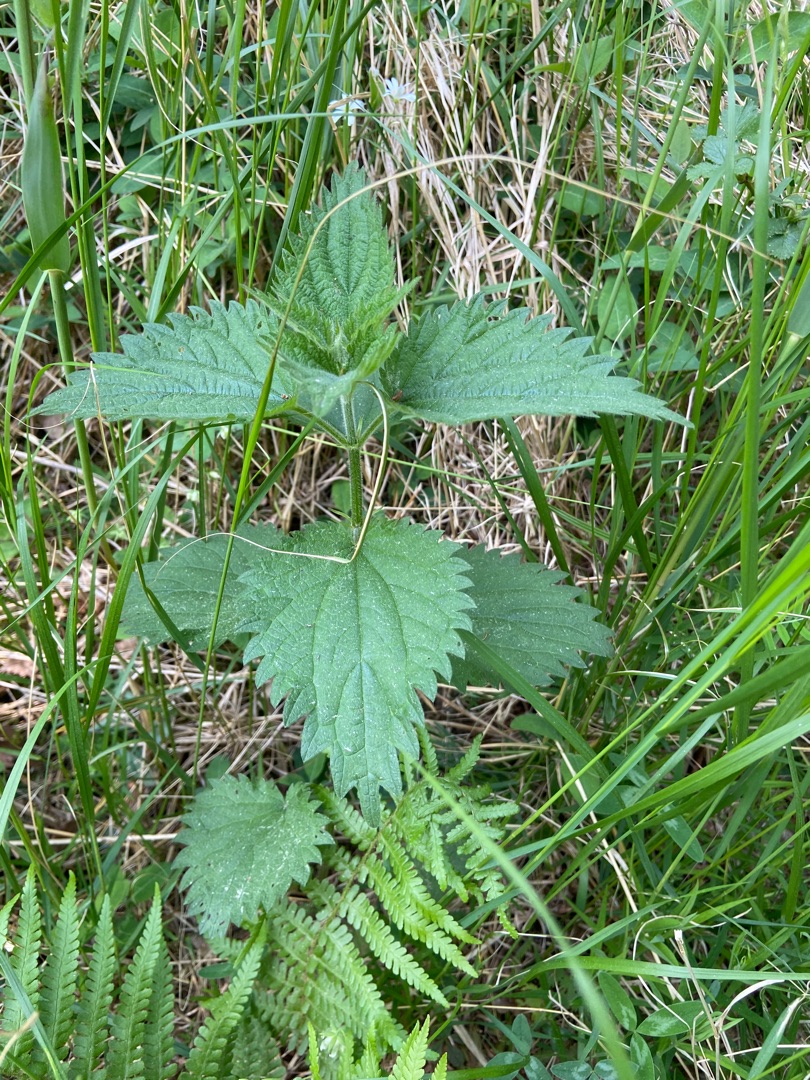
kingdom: Plantae
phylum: Tracheophyta
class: Magnoliopsida
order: Rosales
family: Urticaceae
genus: Urtica
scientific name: Urtica dioica
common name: Stor nælde
